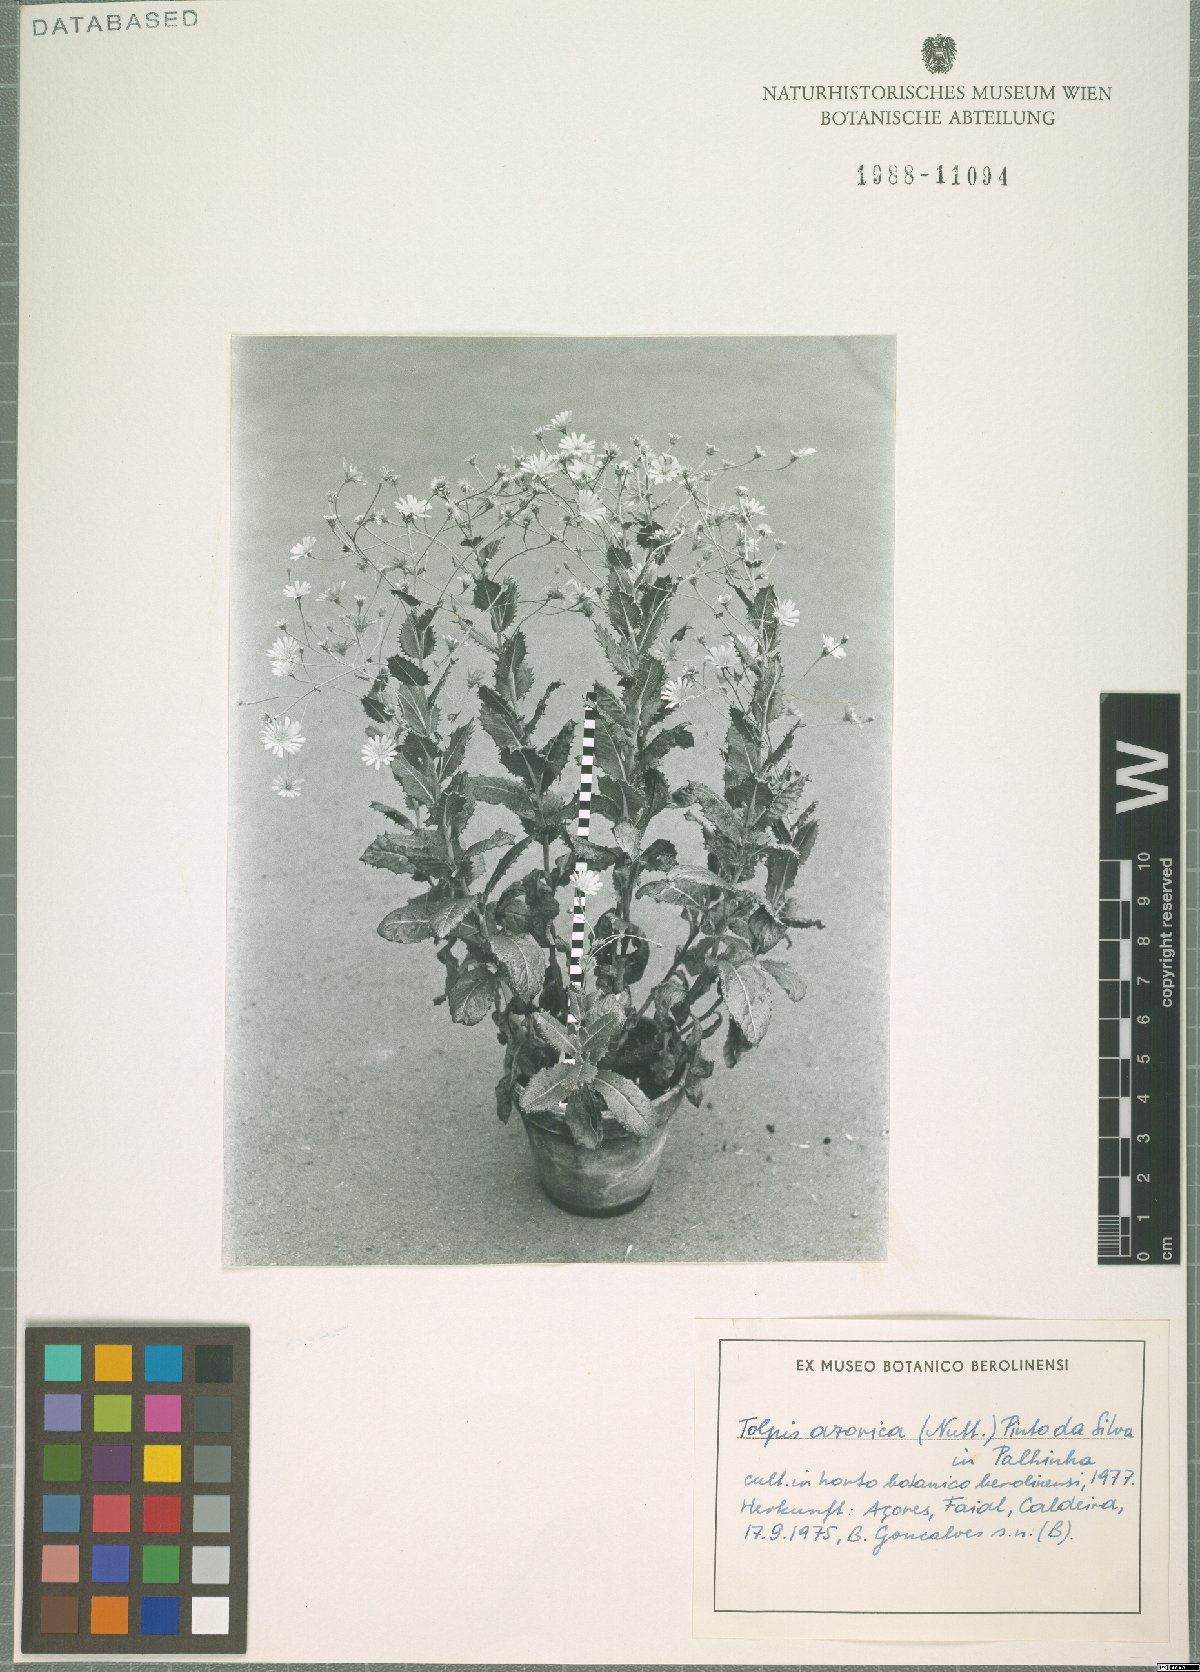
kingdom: Plantae
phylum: Tracheophyta
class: Magnoliopsida
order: Asterales
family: Asteraceae
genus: Tolpis
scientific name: Tolpis azorica
